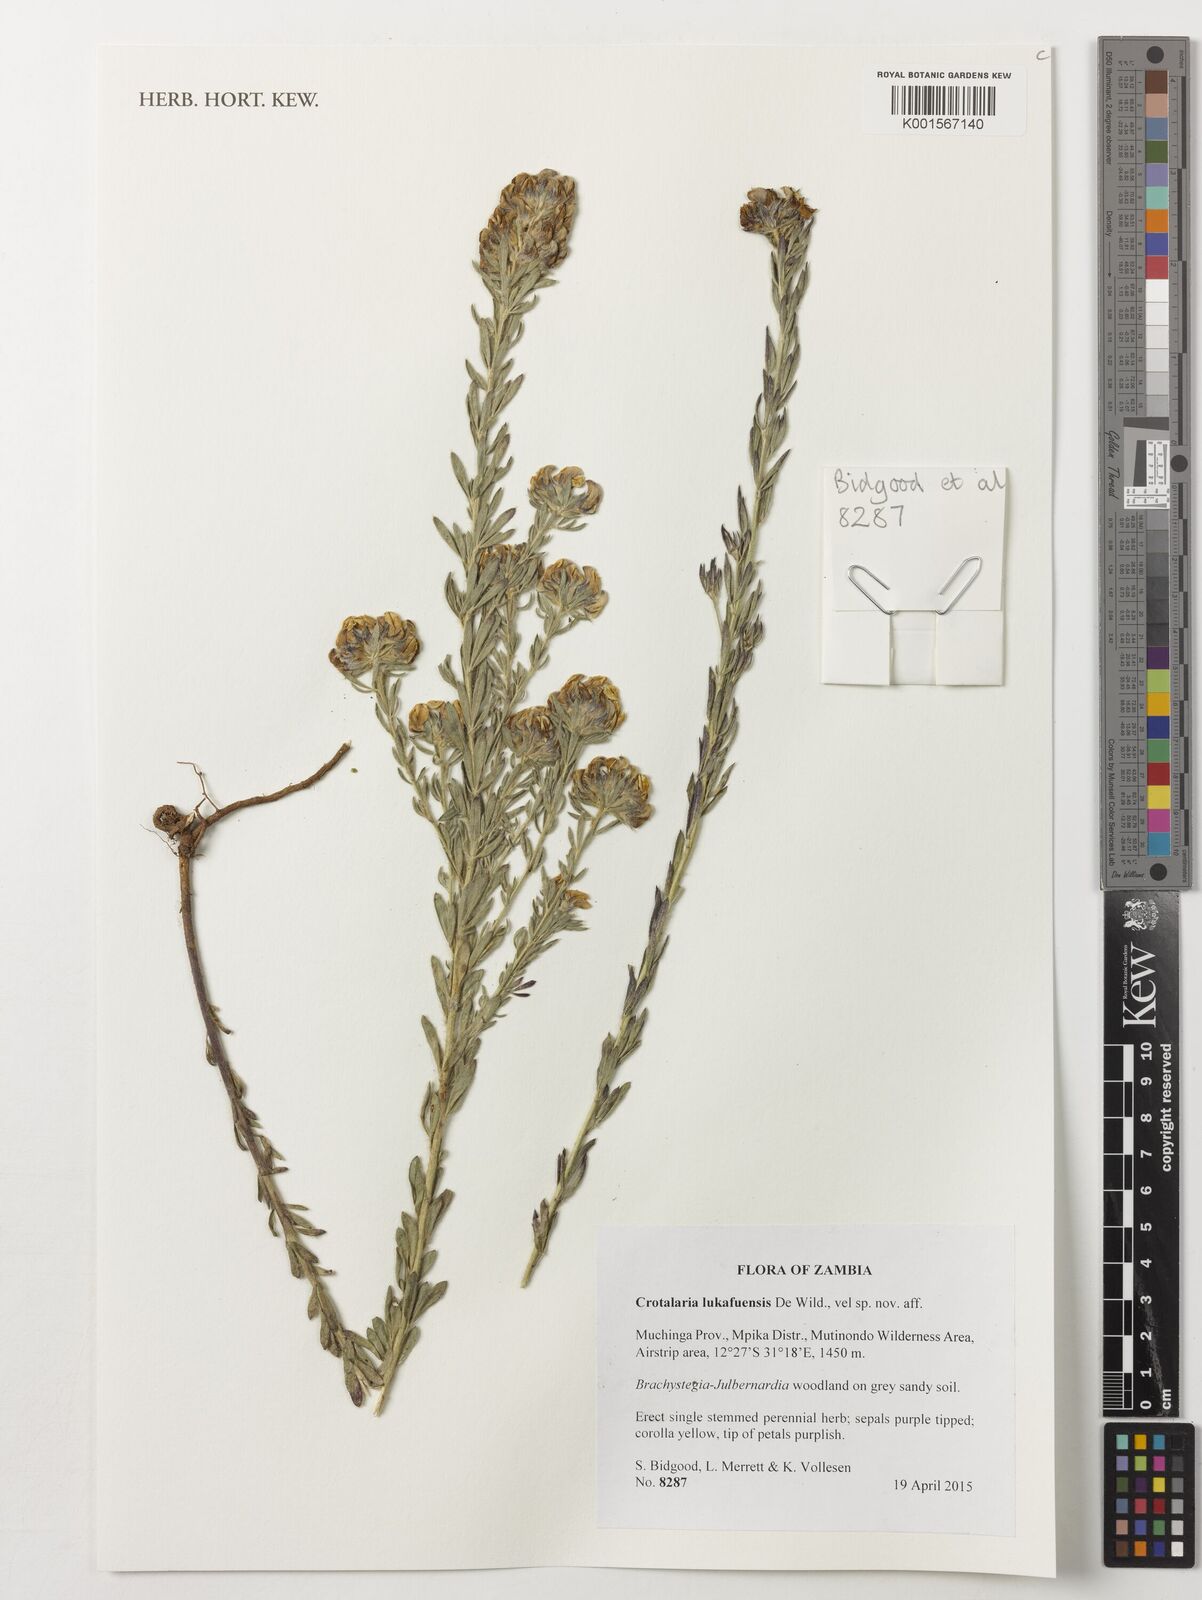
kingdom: Plantae
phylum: Tracheophyta
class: Magnoliopsida
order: Fabales
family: Fabaceae
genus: Crotalaria
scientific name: Crotalaria lukafuensis
